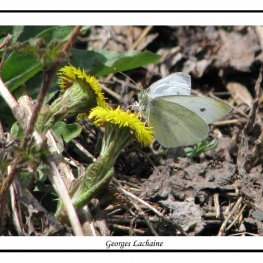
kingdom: Animalia
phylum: Arthropoda
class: Insecta
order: Lepidoptera
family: Pieridae
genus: Pieris
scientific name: Pieris rapae
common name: Cabbage White
